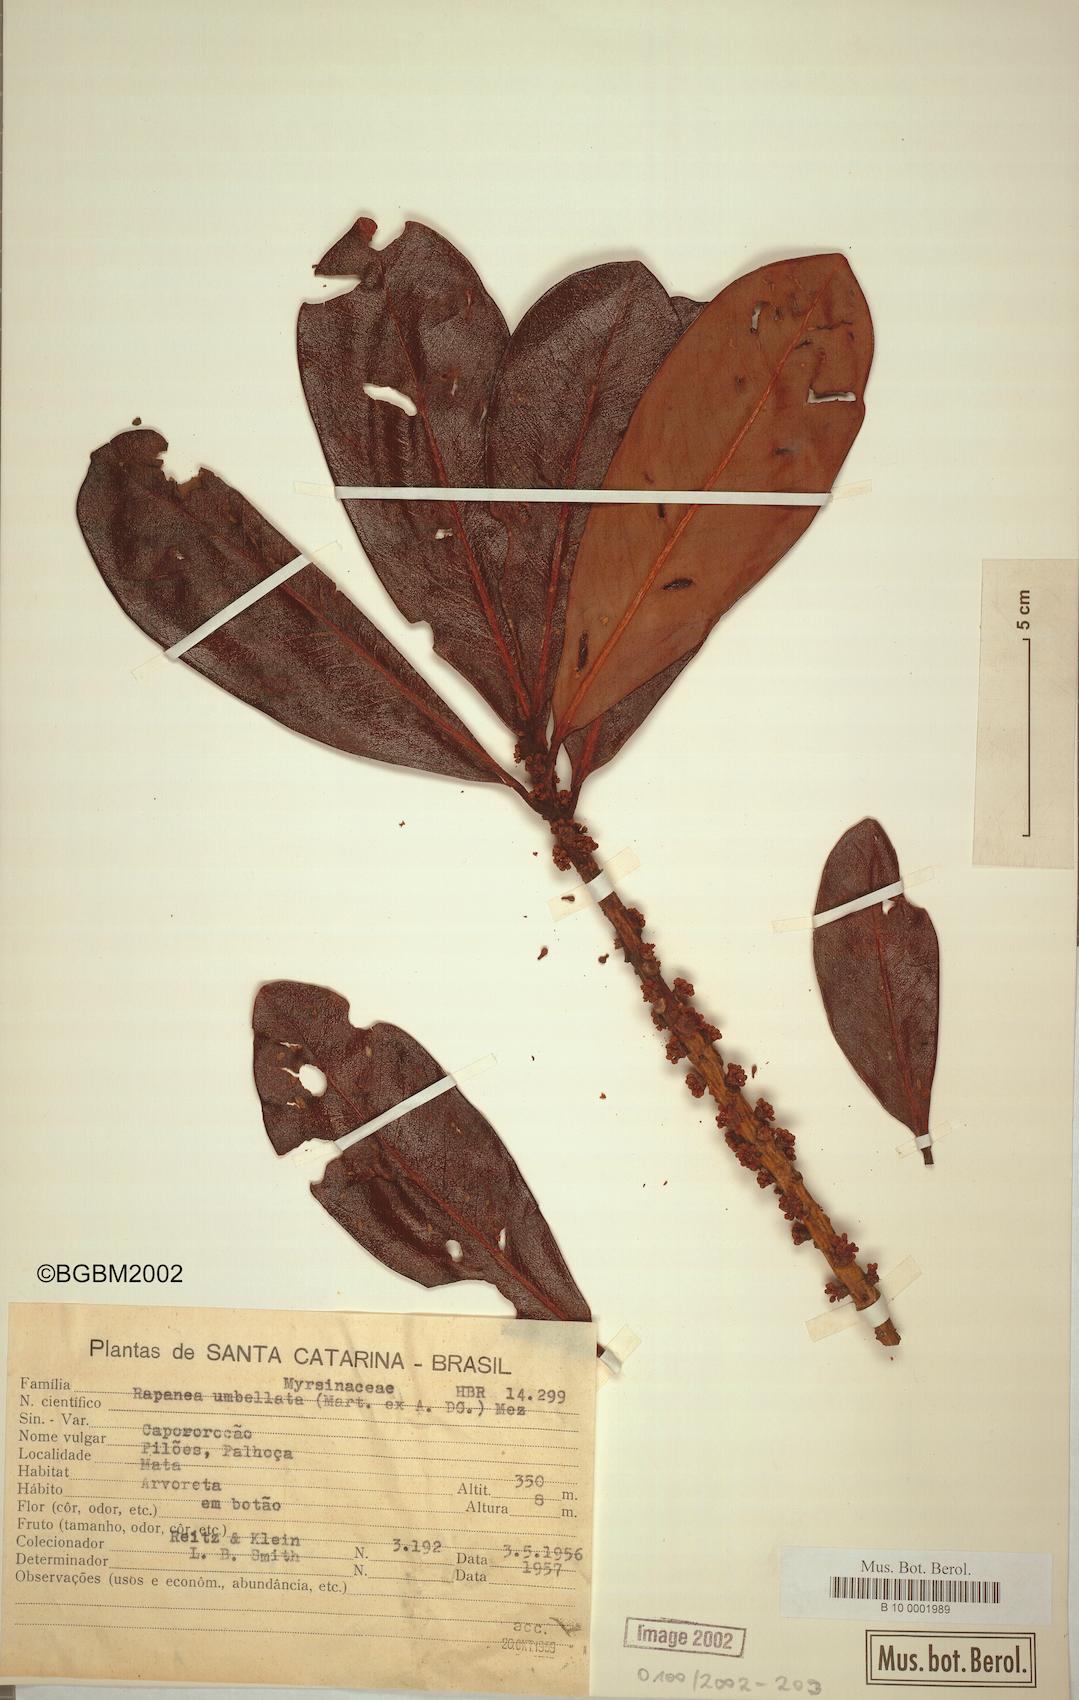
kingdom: Plantae
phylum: Tracheophyta
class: Magnoliopsida
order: Ericales
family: Primulaceae
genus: Myrsine
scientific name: Myrsine umbellata
